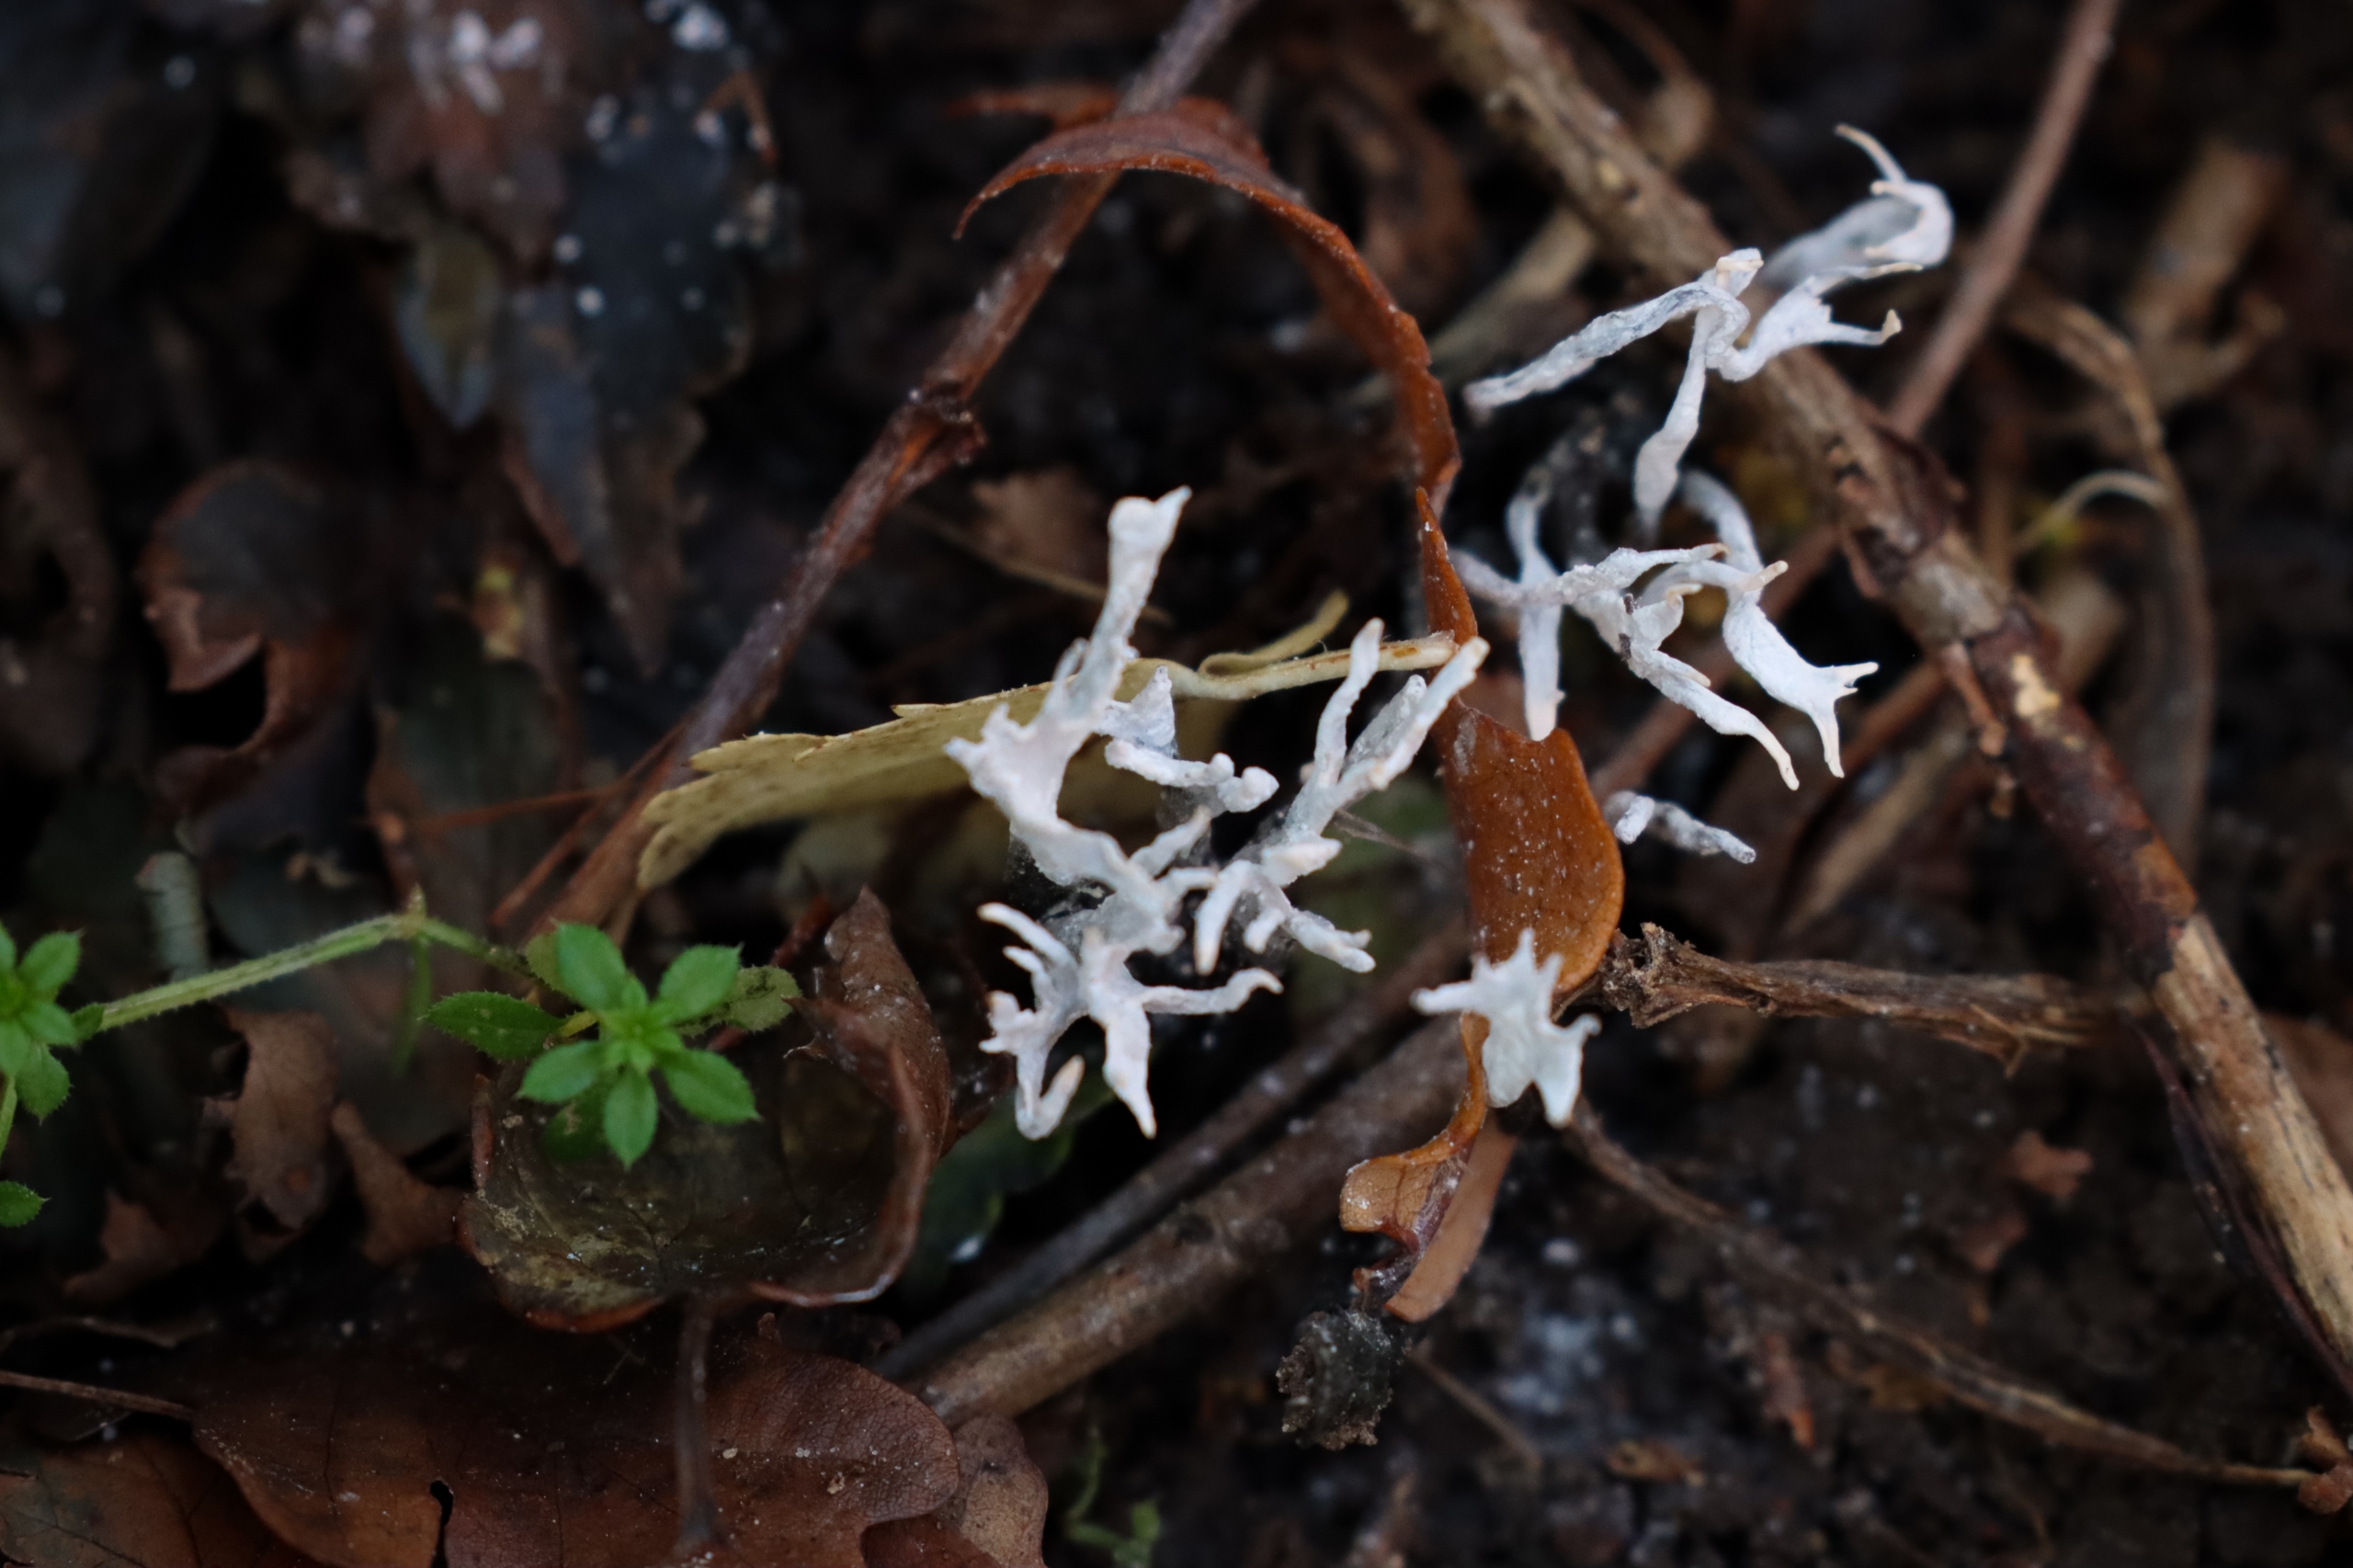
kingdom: Fungi
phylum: Ascomycota
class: Sordariomycetes
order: Xylariales
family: Xylariaceae
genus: Xylaria
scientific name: Xylaria hypoxylon
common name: Grenet stødsvamp
